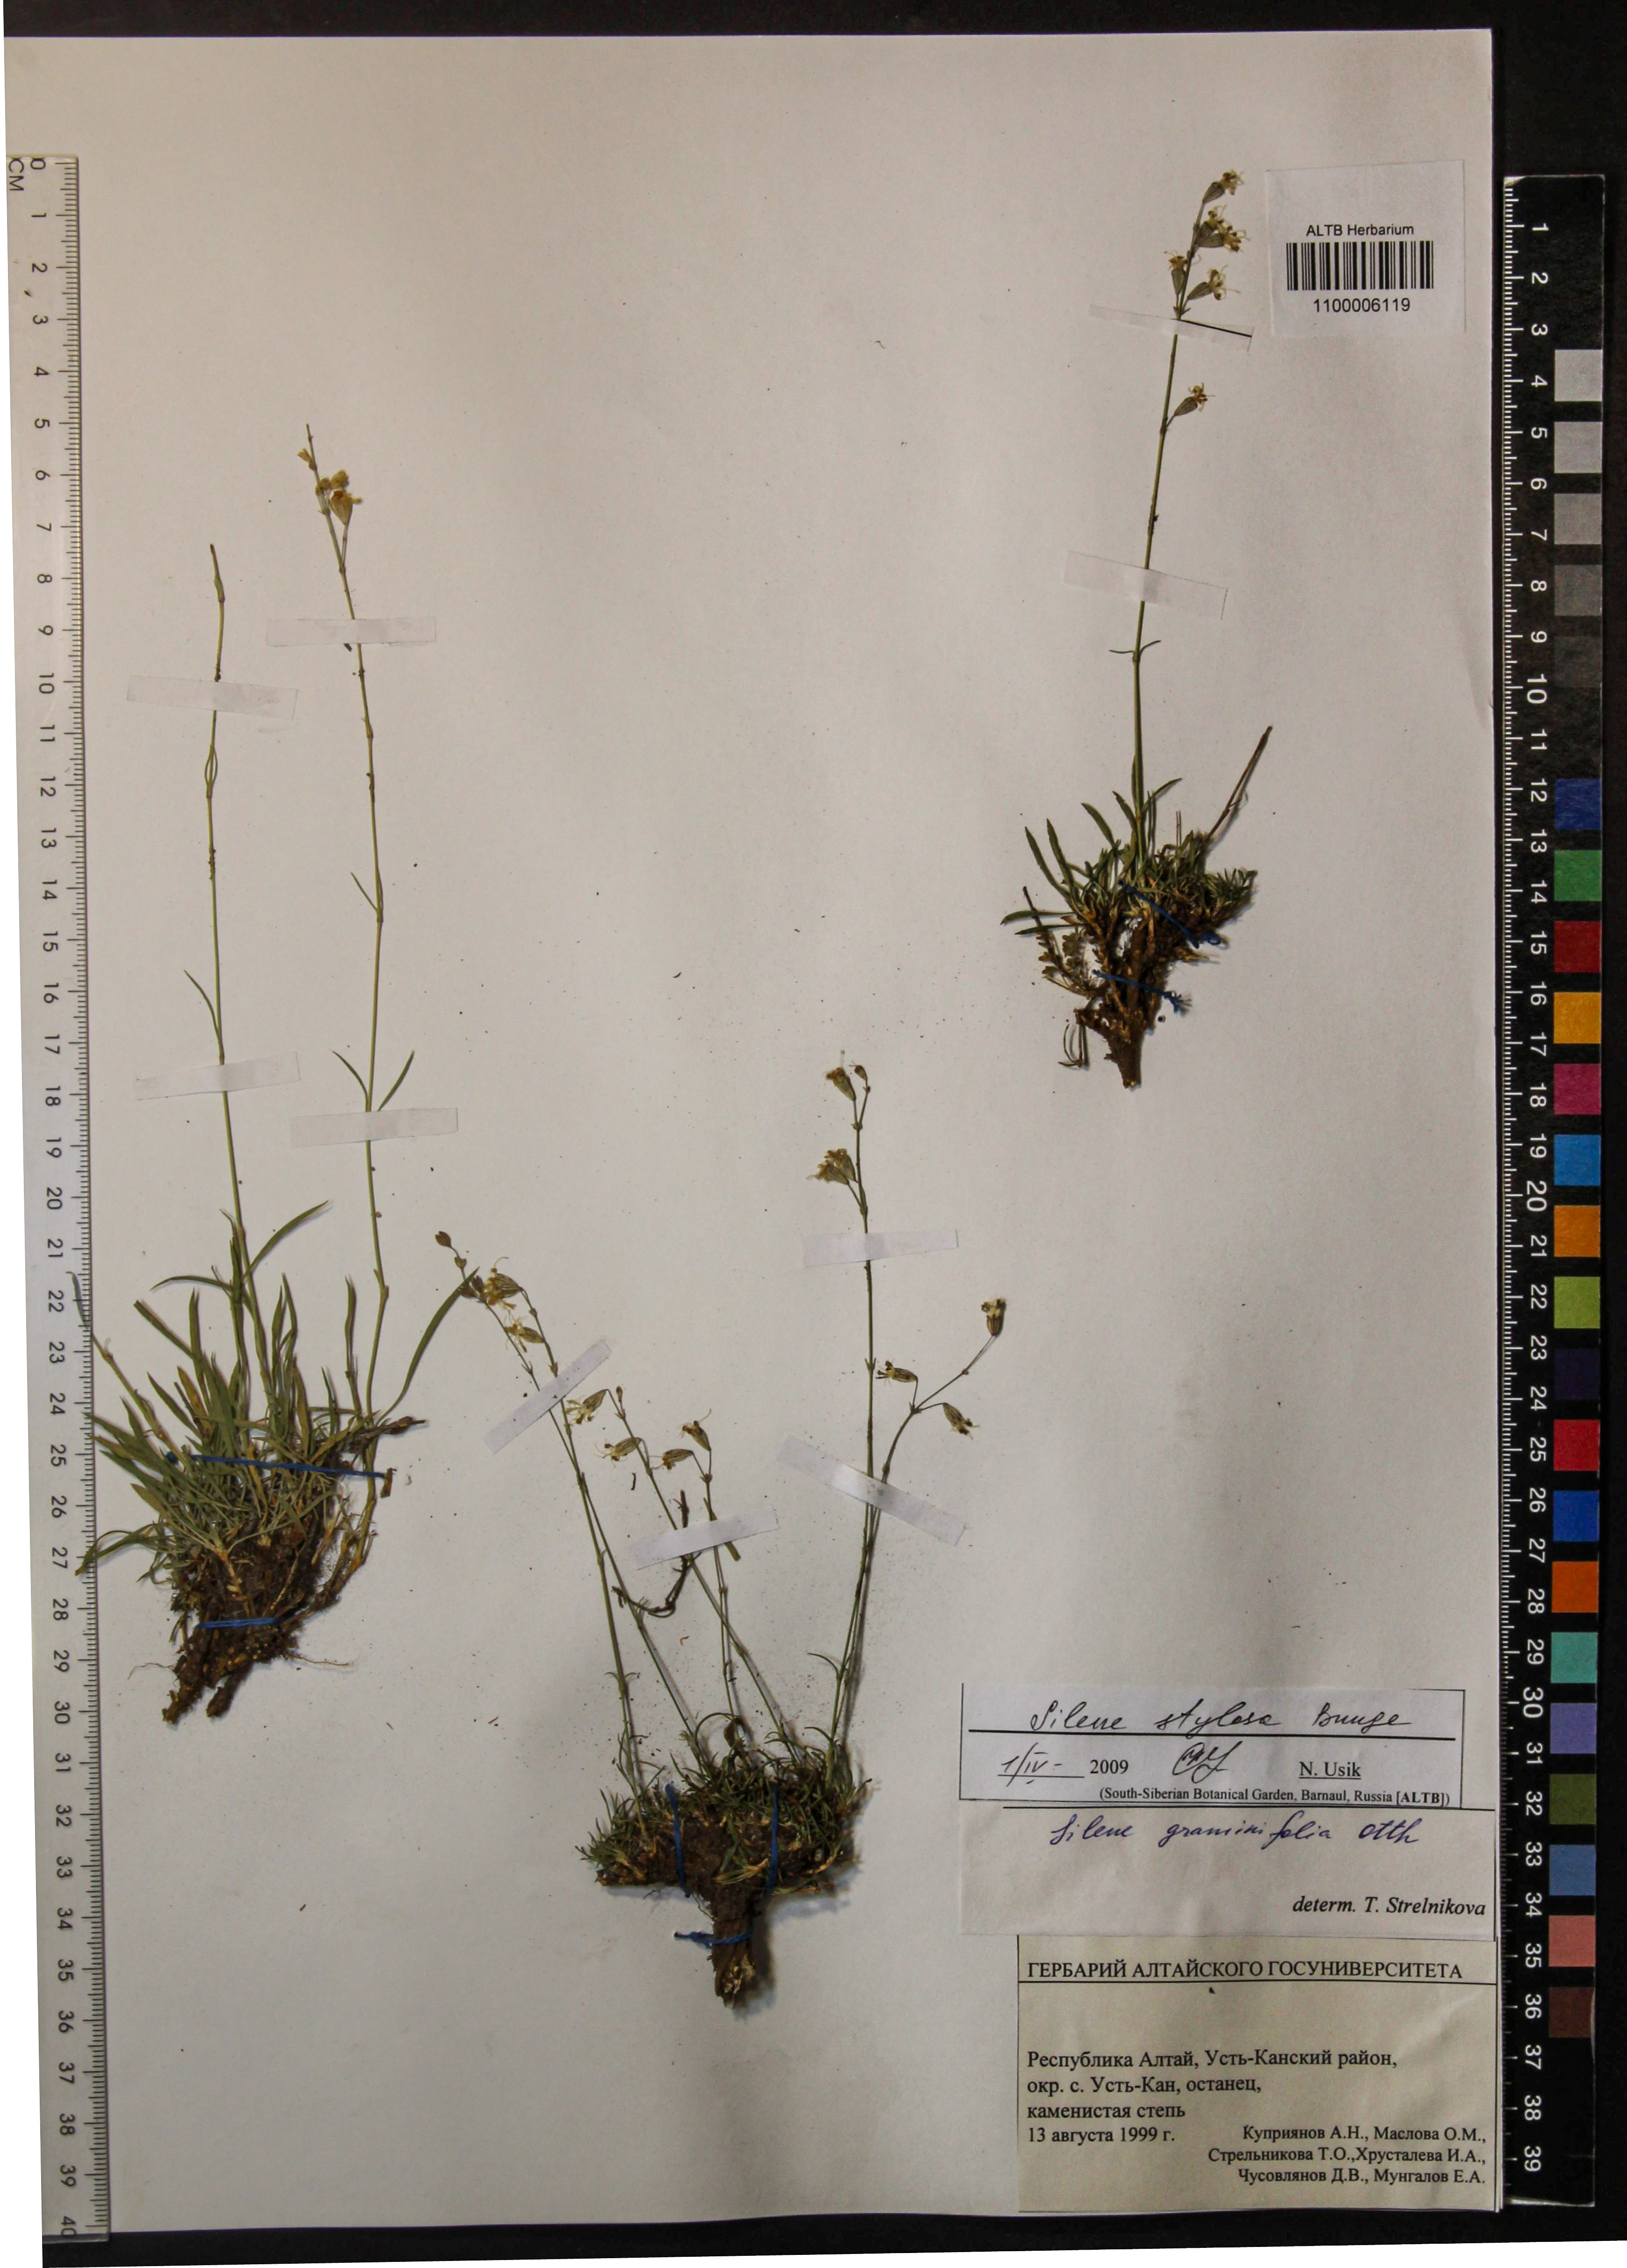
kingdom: Plantae
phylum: Tracheophyta
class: Magnoliopsida
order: Caryophyllales
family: Caryophyllaceae
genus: Silene
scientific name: Silene graminifolia
